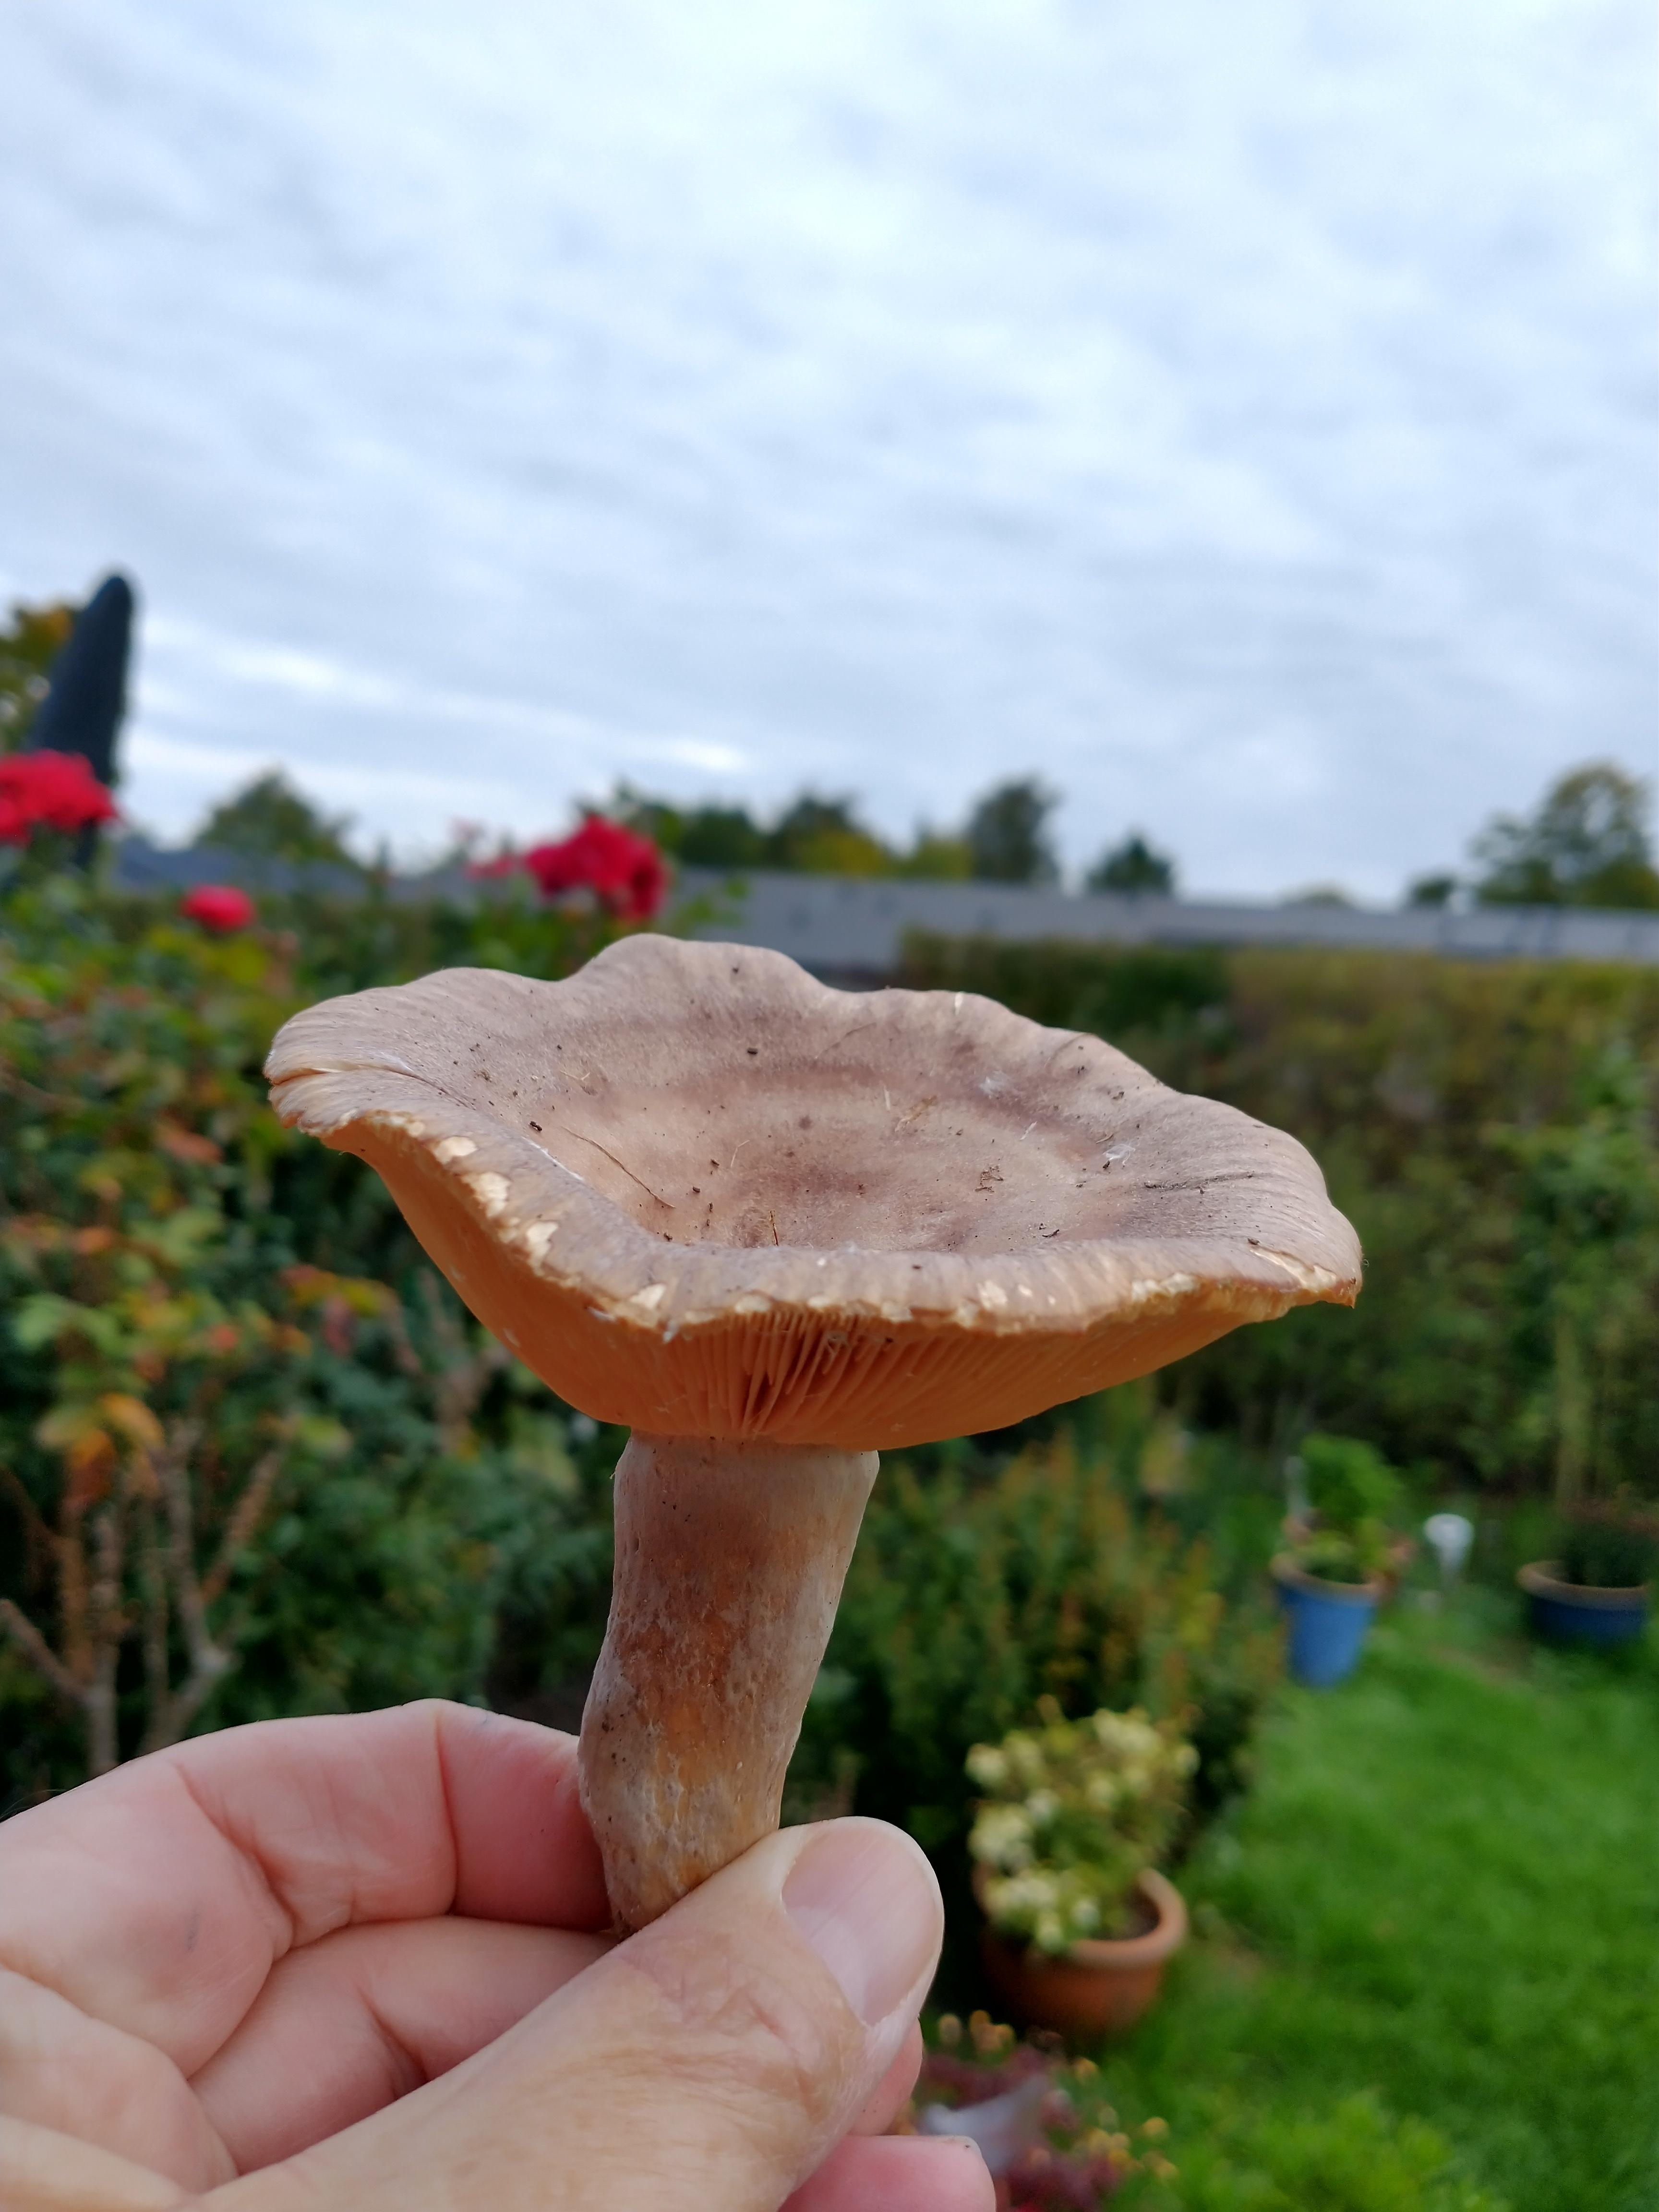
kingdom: Fungi
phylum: Basidiomycota
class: Agaricomycetes
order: Russulales
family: Russulaceae
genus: Lactarius
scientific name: Lactarius pyrogalus
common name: hassel-mælkehat
